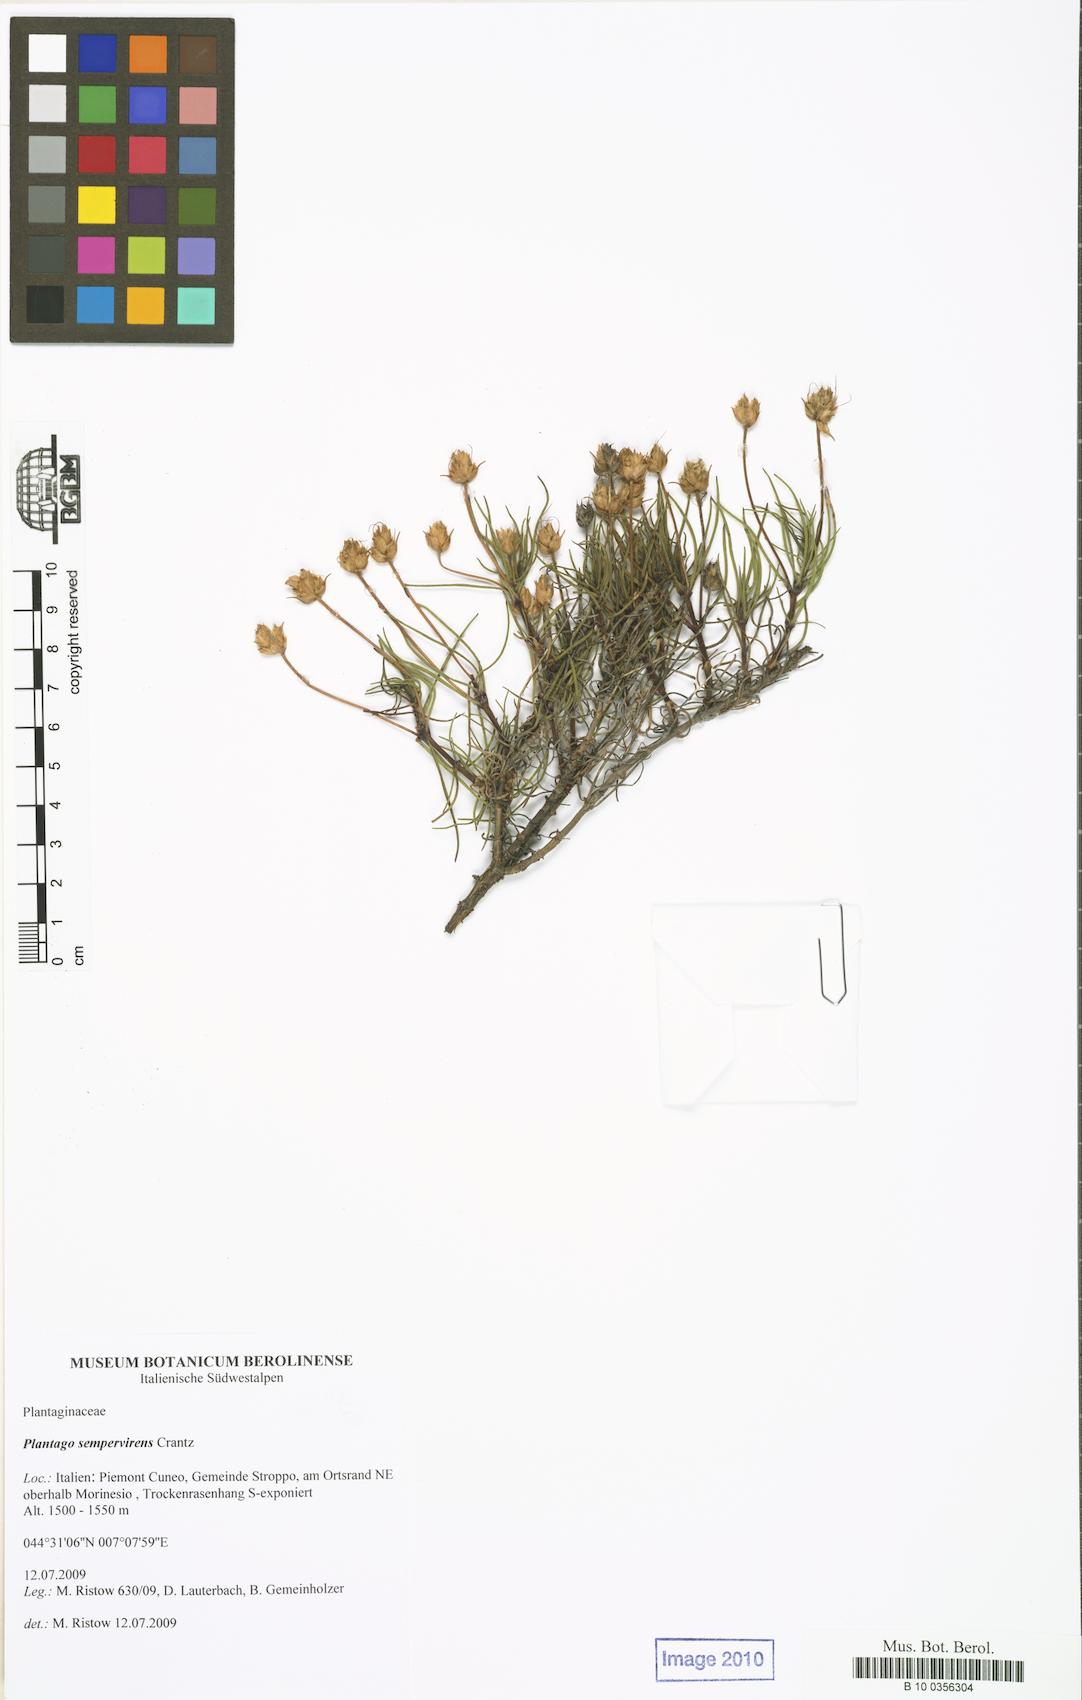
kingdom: Plantae
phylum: Tracheophyta
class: Magnoliopsida
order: Lamiales
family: Plantaginaceae
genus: Plantago
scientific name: Plantago sempervirens
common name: Shrubby plantain
